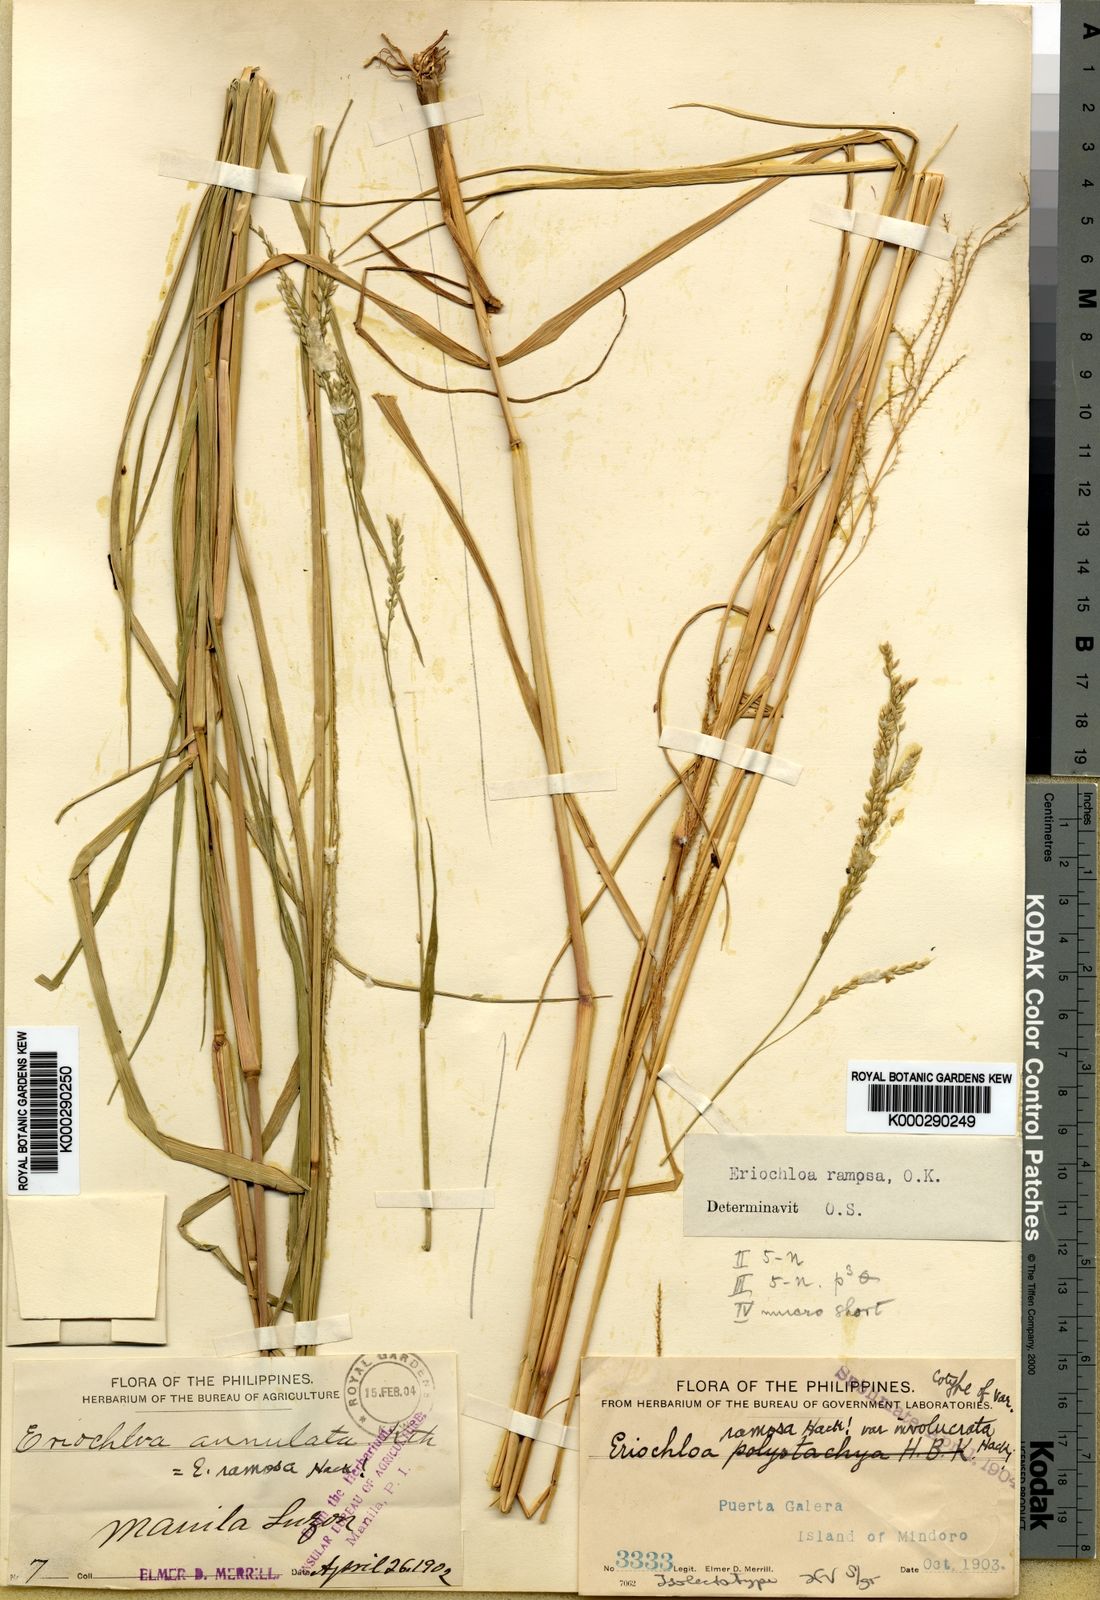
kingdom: Plantae
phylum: Tracheophyta
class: Liliopsida
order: Poales
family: Poaceae
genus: Eriochloa
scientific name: Eriochloa procera
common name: Spring grass
